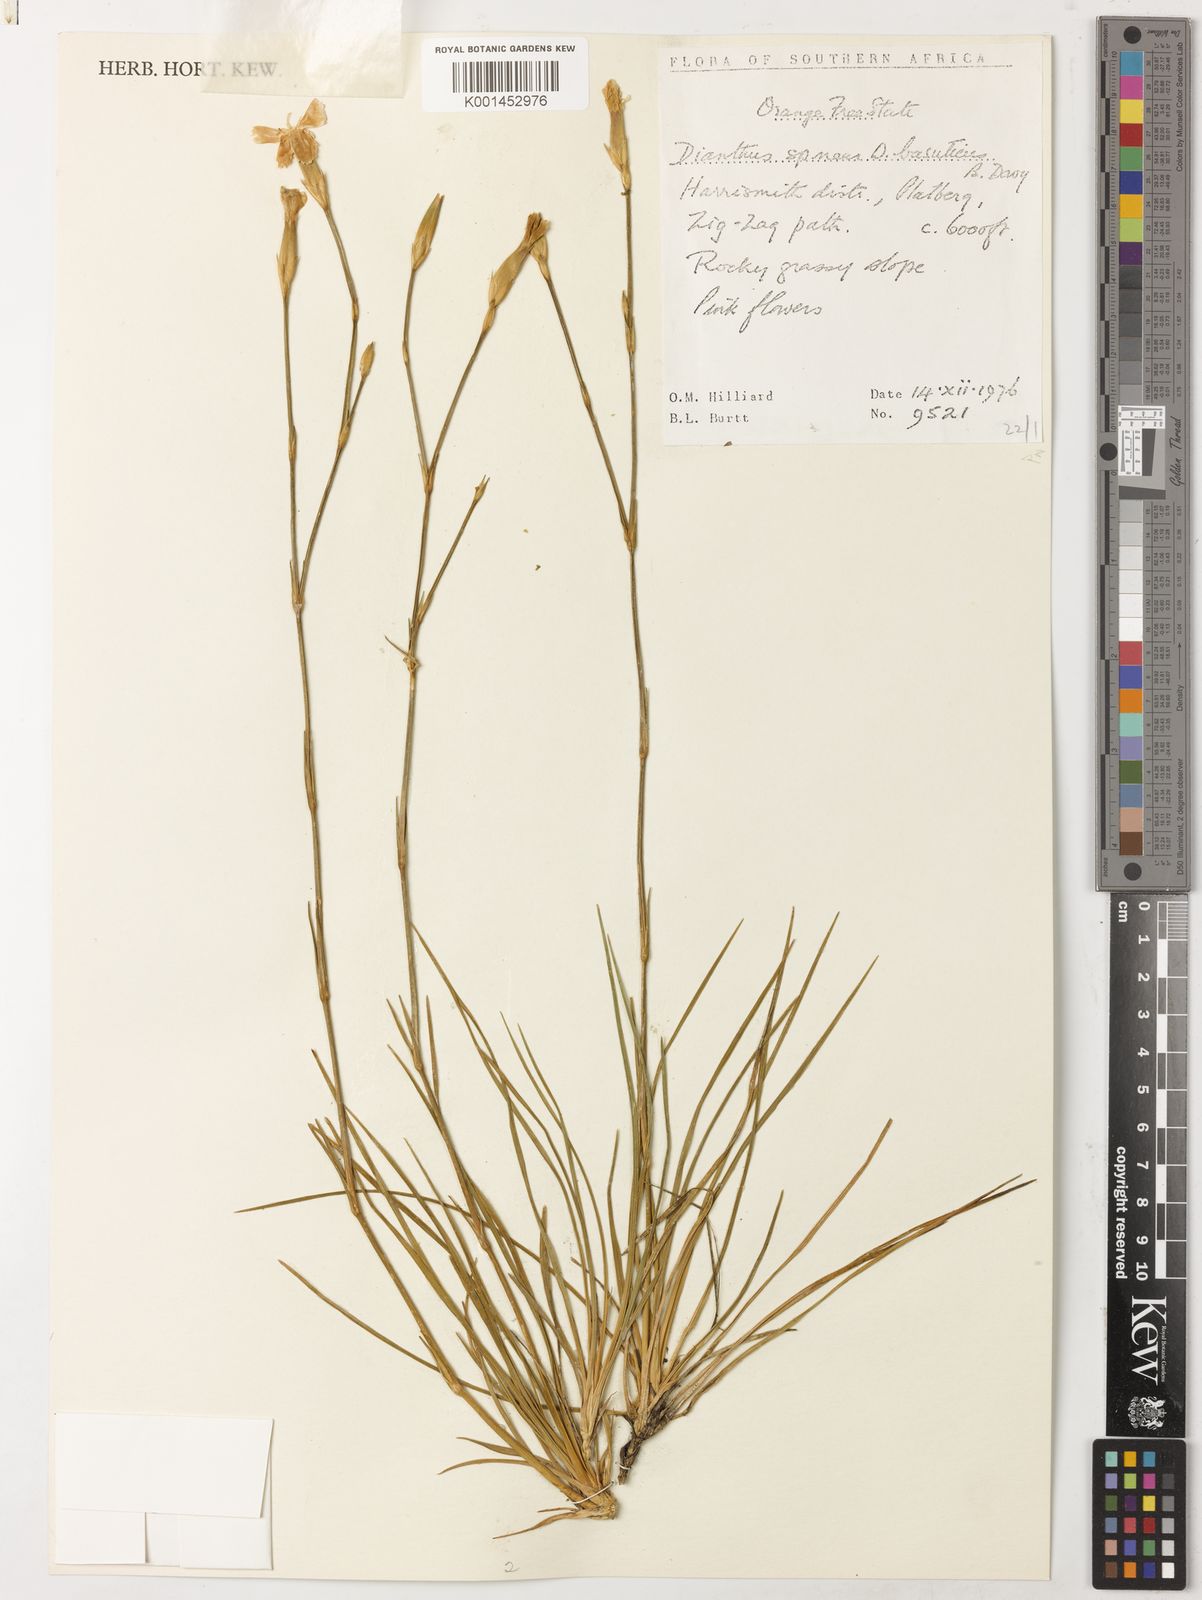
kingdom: Plantae
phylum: Tracheophyta
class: Magnoliopsida
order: Caryophyllales
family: Caryophyllaceae
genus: Dianthus
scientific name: Dianthus basuticus
